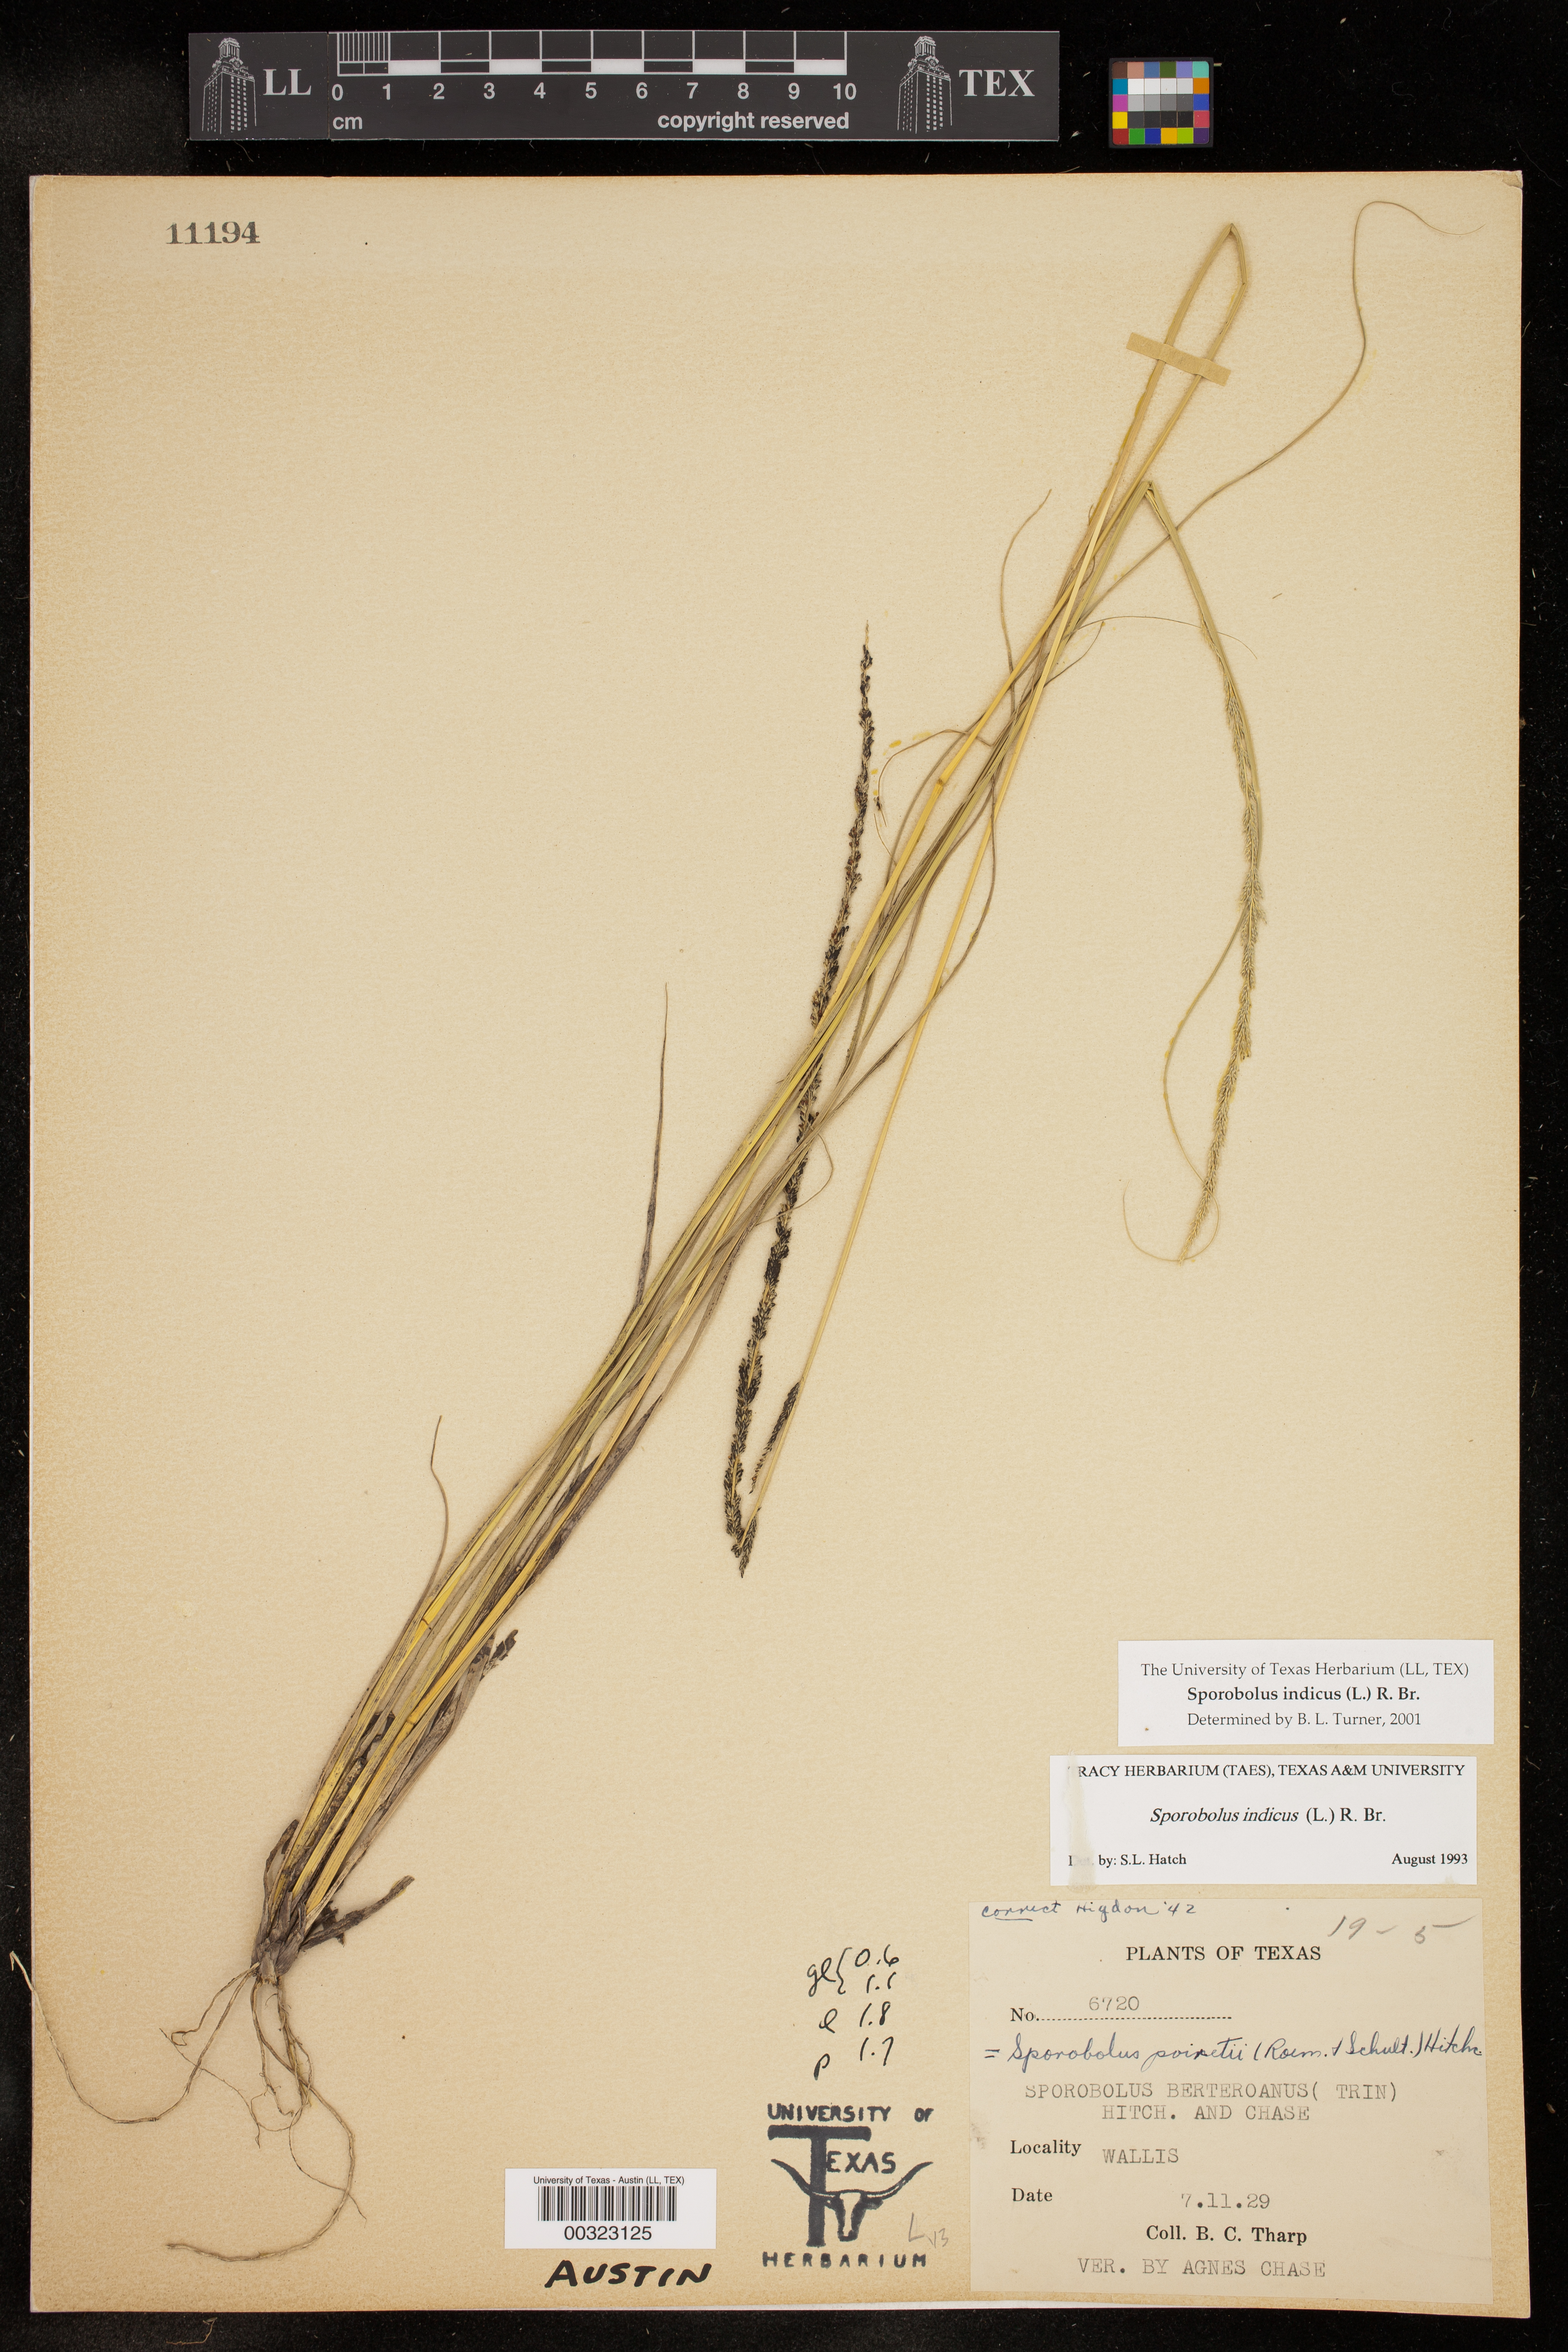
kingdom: Plantae
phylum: Tracheophyta
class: Liliopsida
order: Poales
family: Poaceae
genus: Sporobolus
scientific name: Sporobolus indicus
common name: Smut grass
